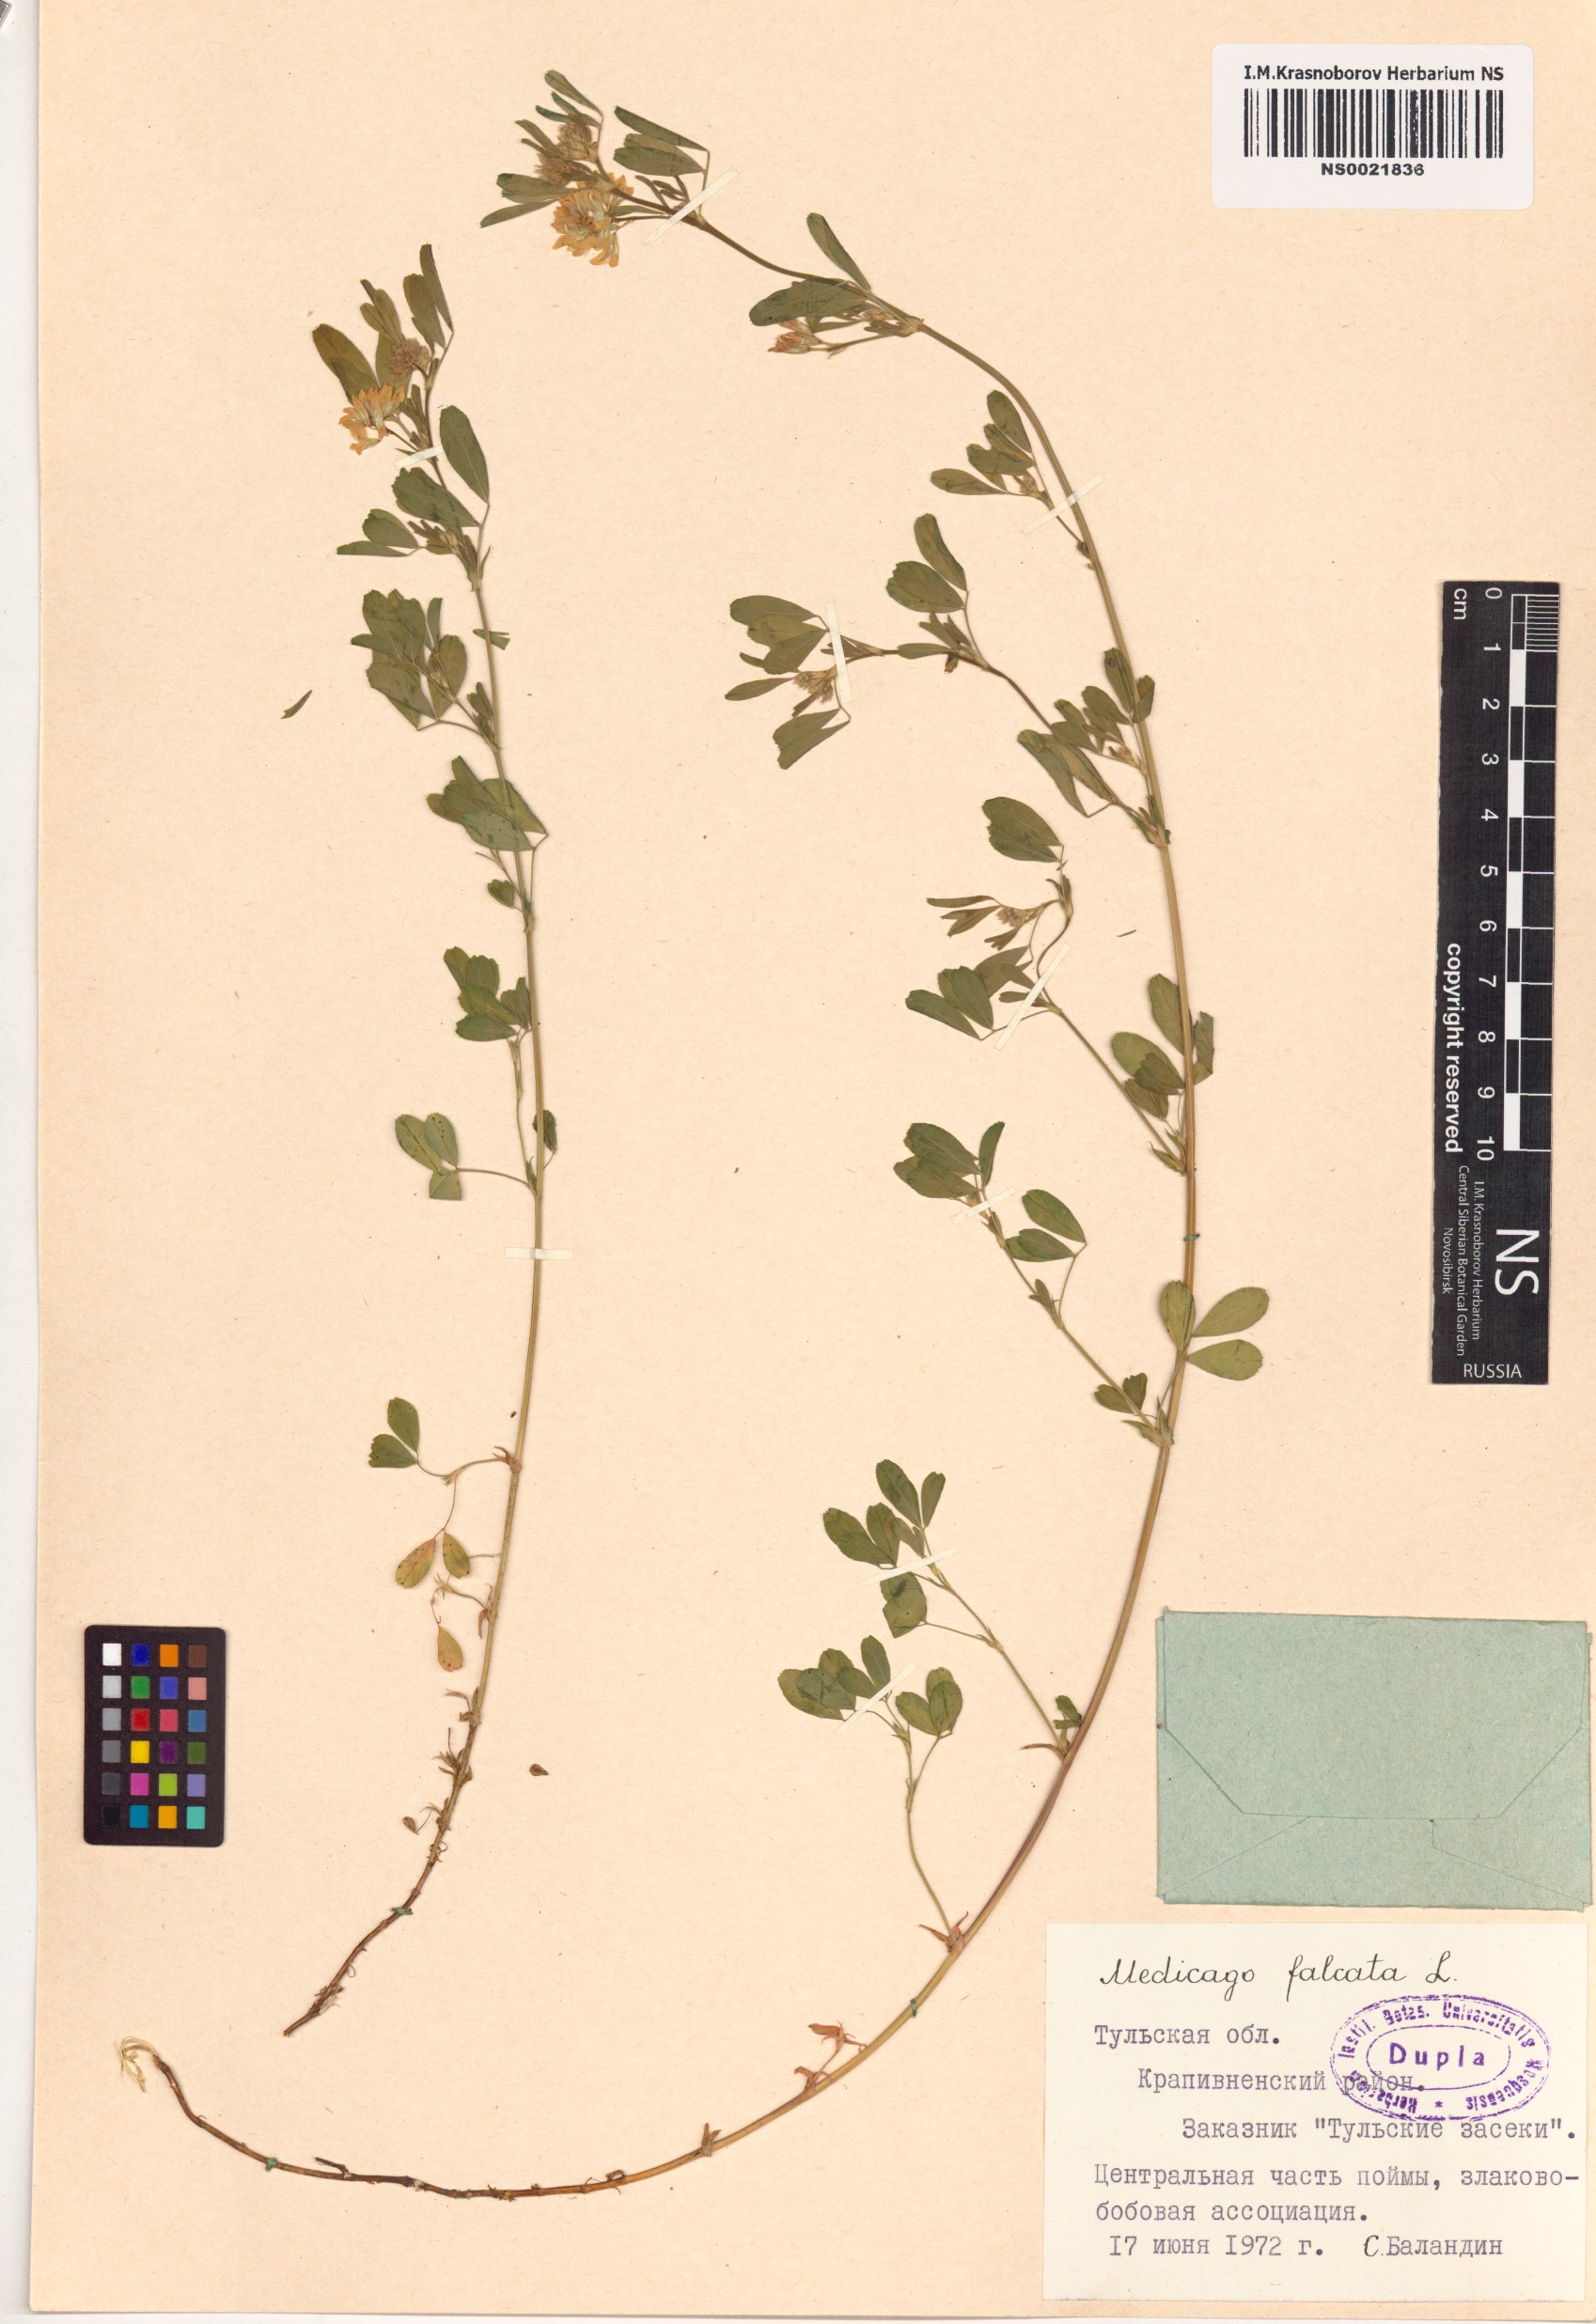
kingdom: Plantae
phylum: Tracheophyta
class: Magnoliopsida
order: Fabales
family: Fabaceae
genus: Medicago
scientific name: Medicago falcata
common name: Sickle medick
